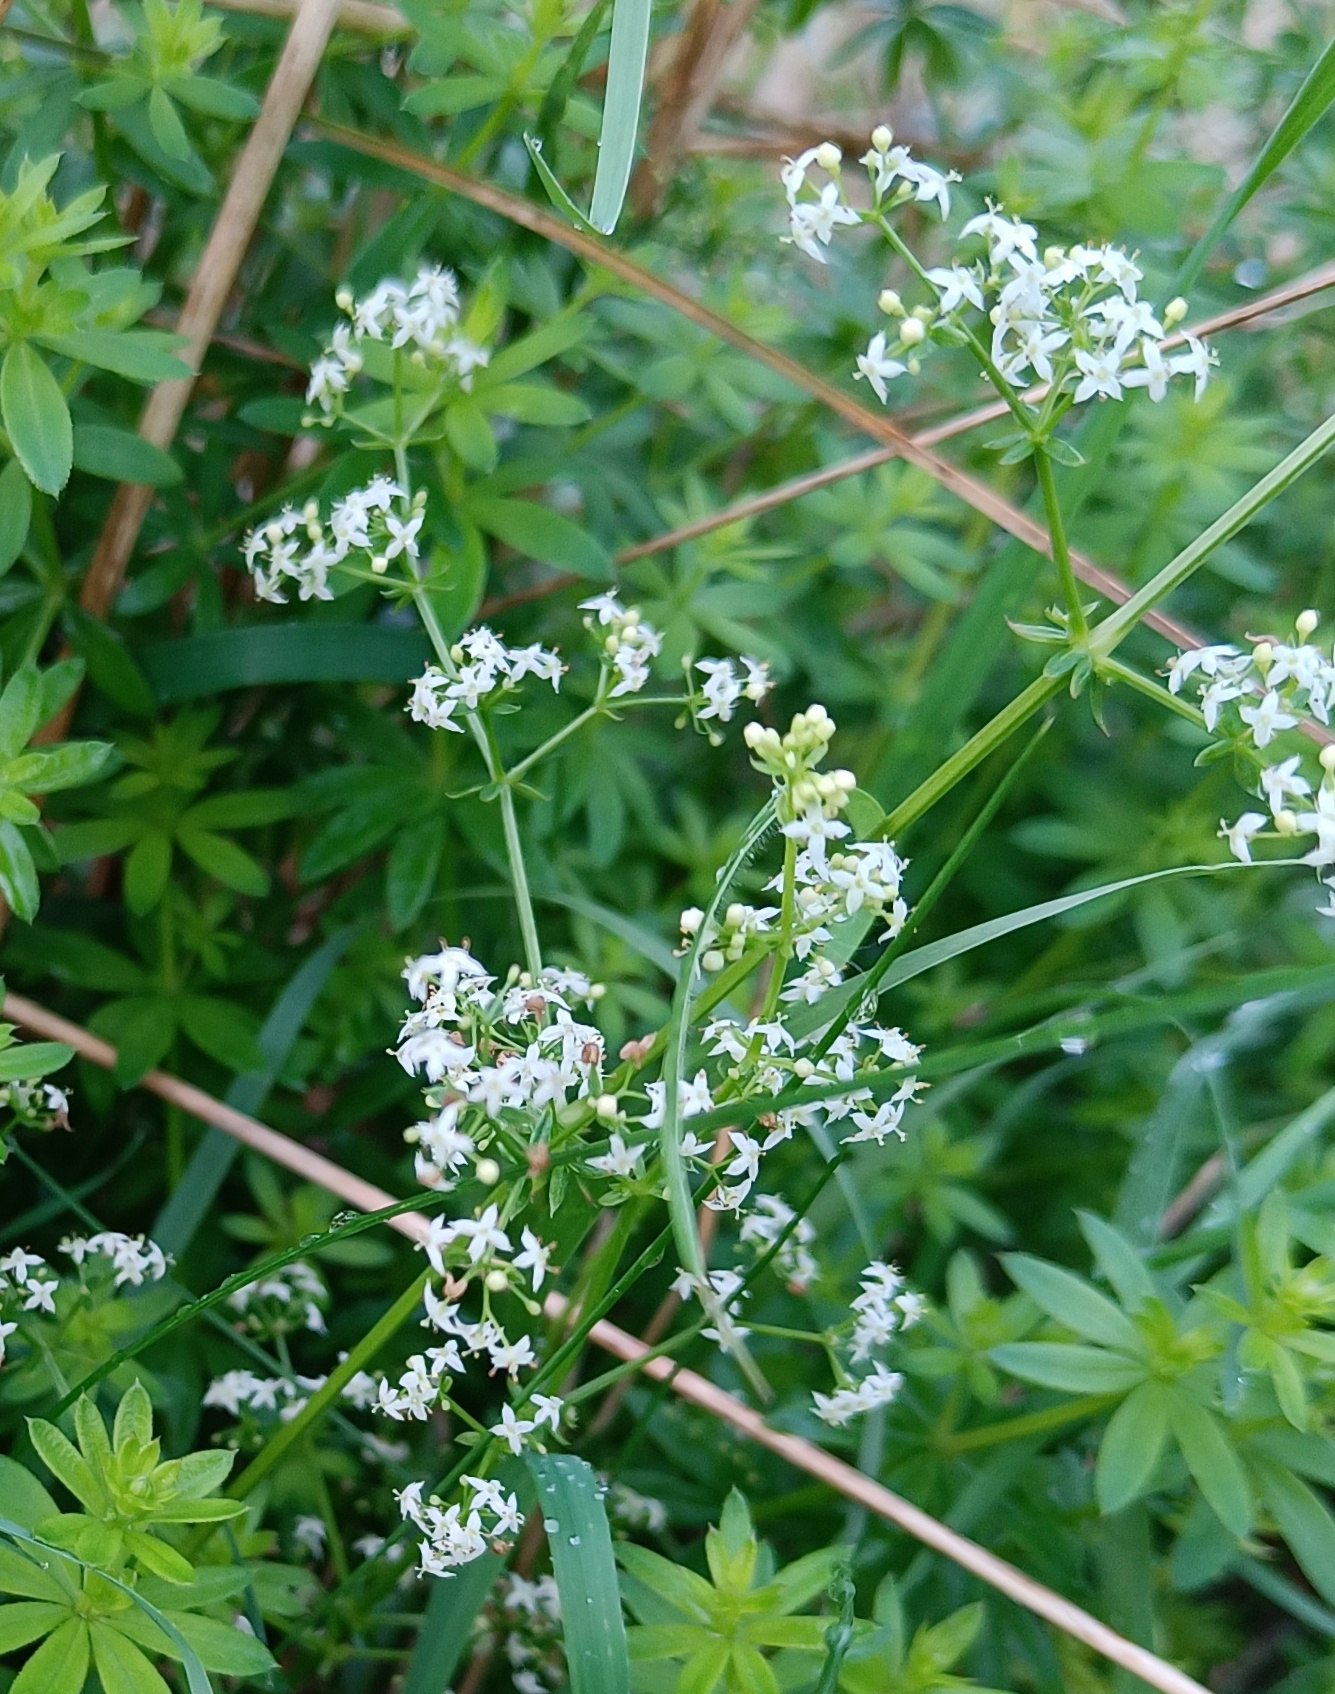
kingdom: Plantae
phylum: Tracheophyta
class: Magnoliopsida
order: Gentianales
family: Rubiaceae
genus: Galium
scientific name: Galium odoratum
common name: Skovmærke
